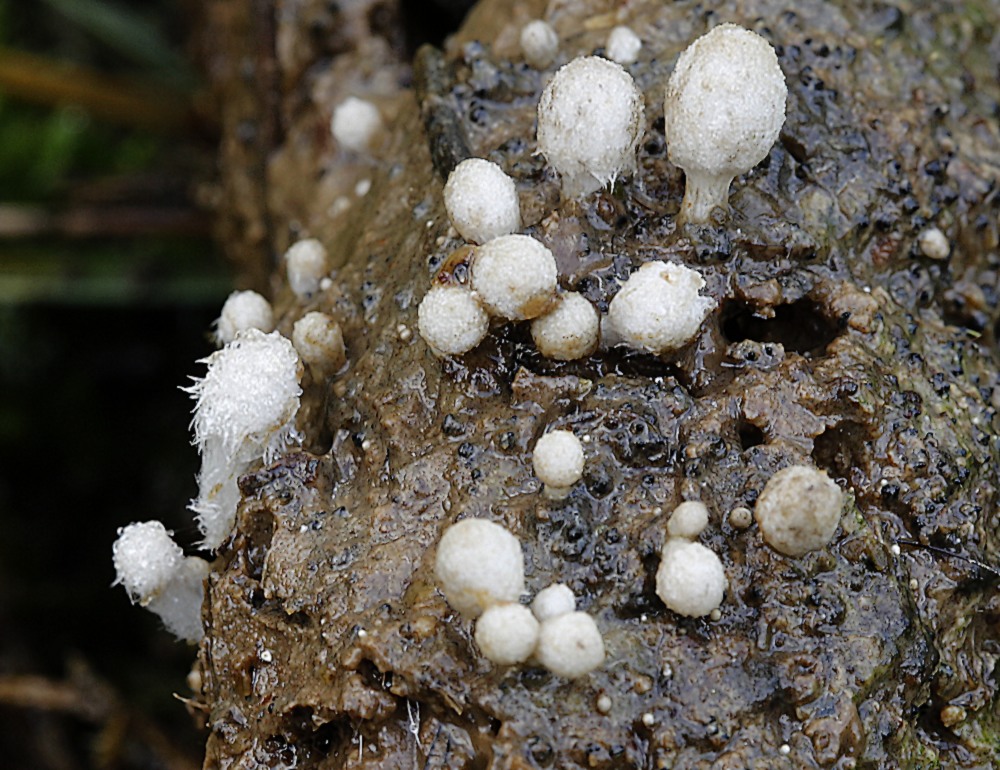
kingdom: Fungi
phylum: Basidiomycota
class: Agaricomycetes
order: Agaricales
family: Psathyrellaceae
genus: Coprinopsis
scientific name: Coprinopsis stercorea
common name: pjusket blækhat
